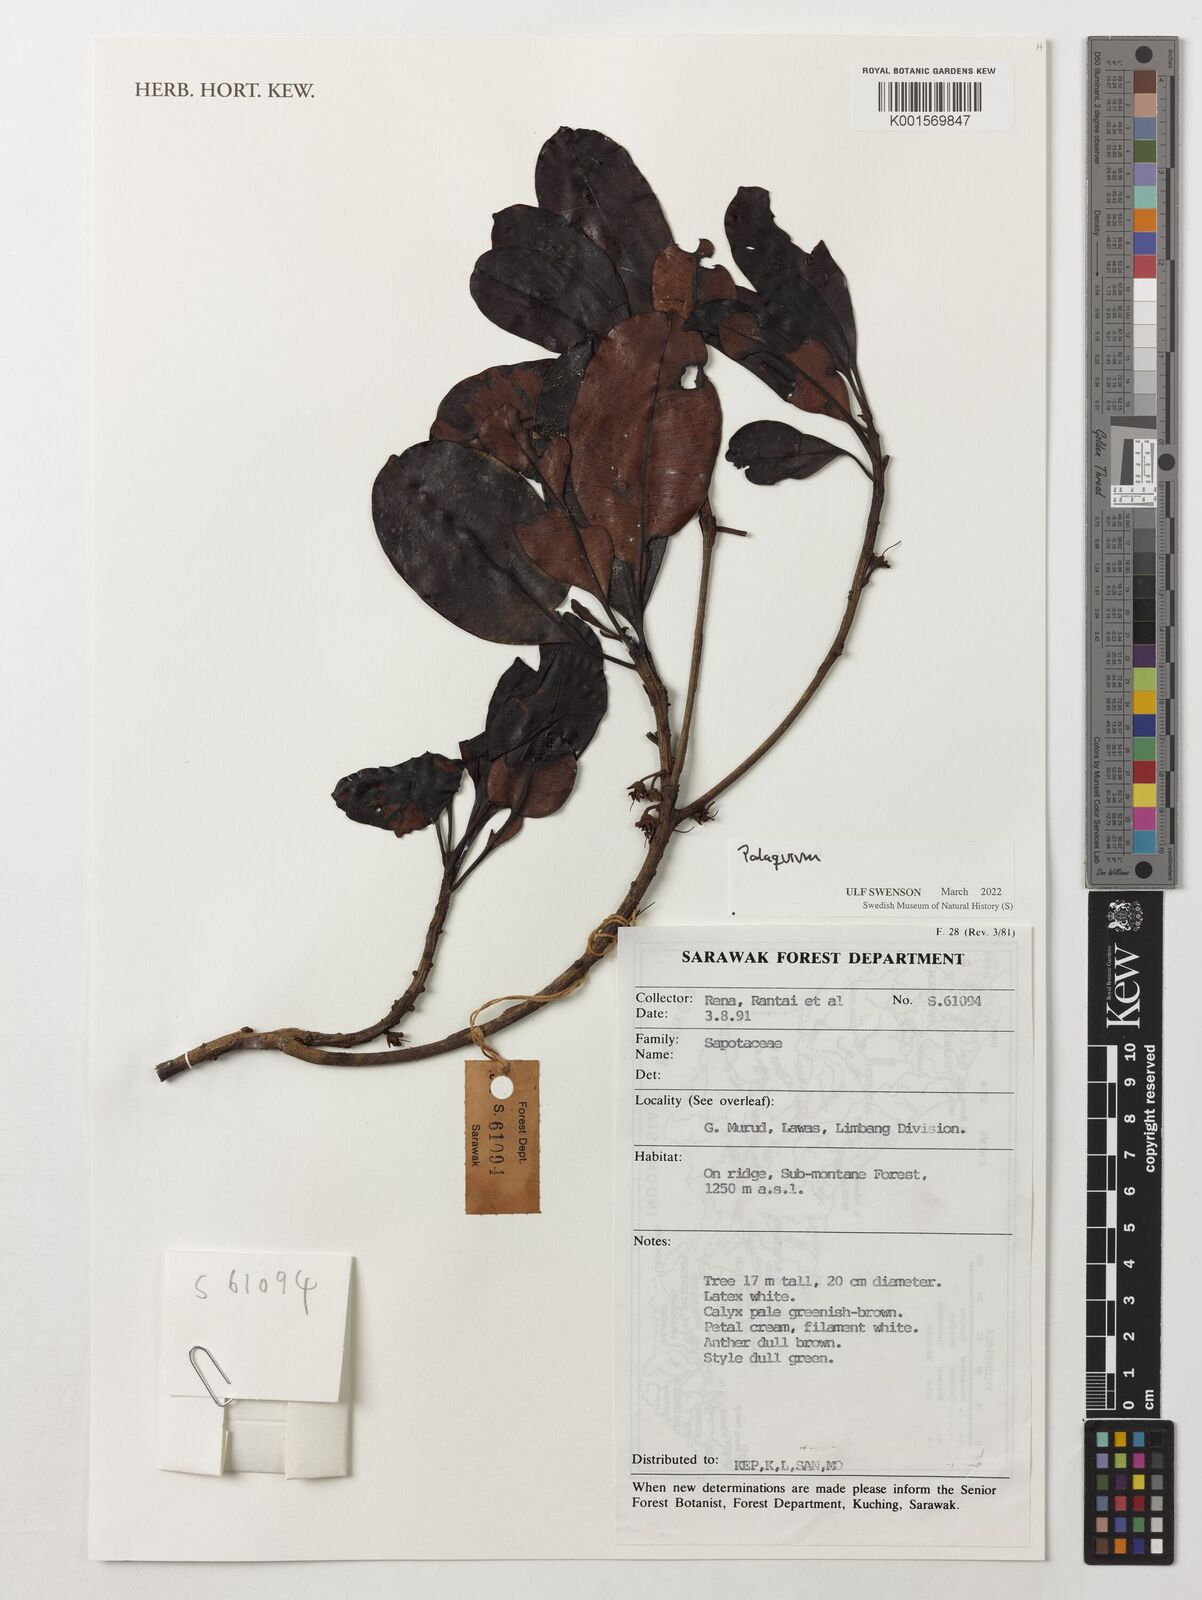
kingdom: Plantae
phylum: Tracheophyta
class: Magnoliopsida
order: Ericales
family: Sapotaceae
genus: Palaquium
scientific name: Palaquium
